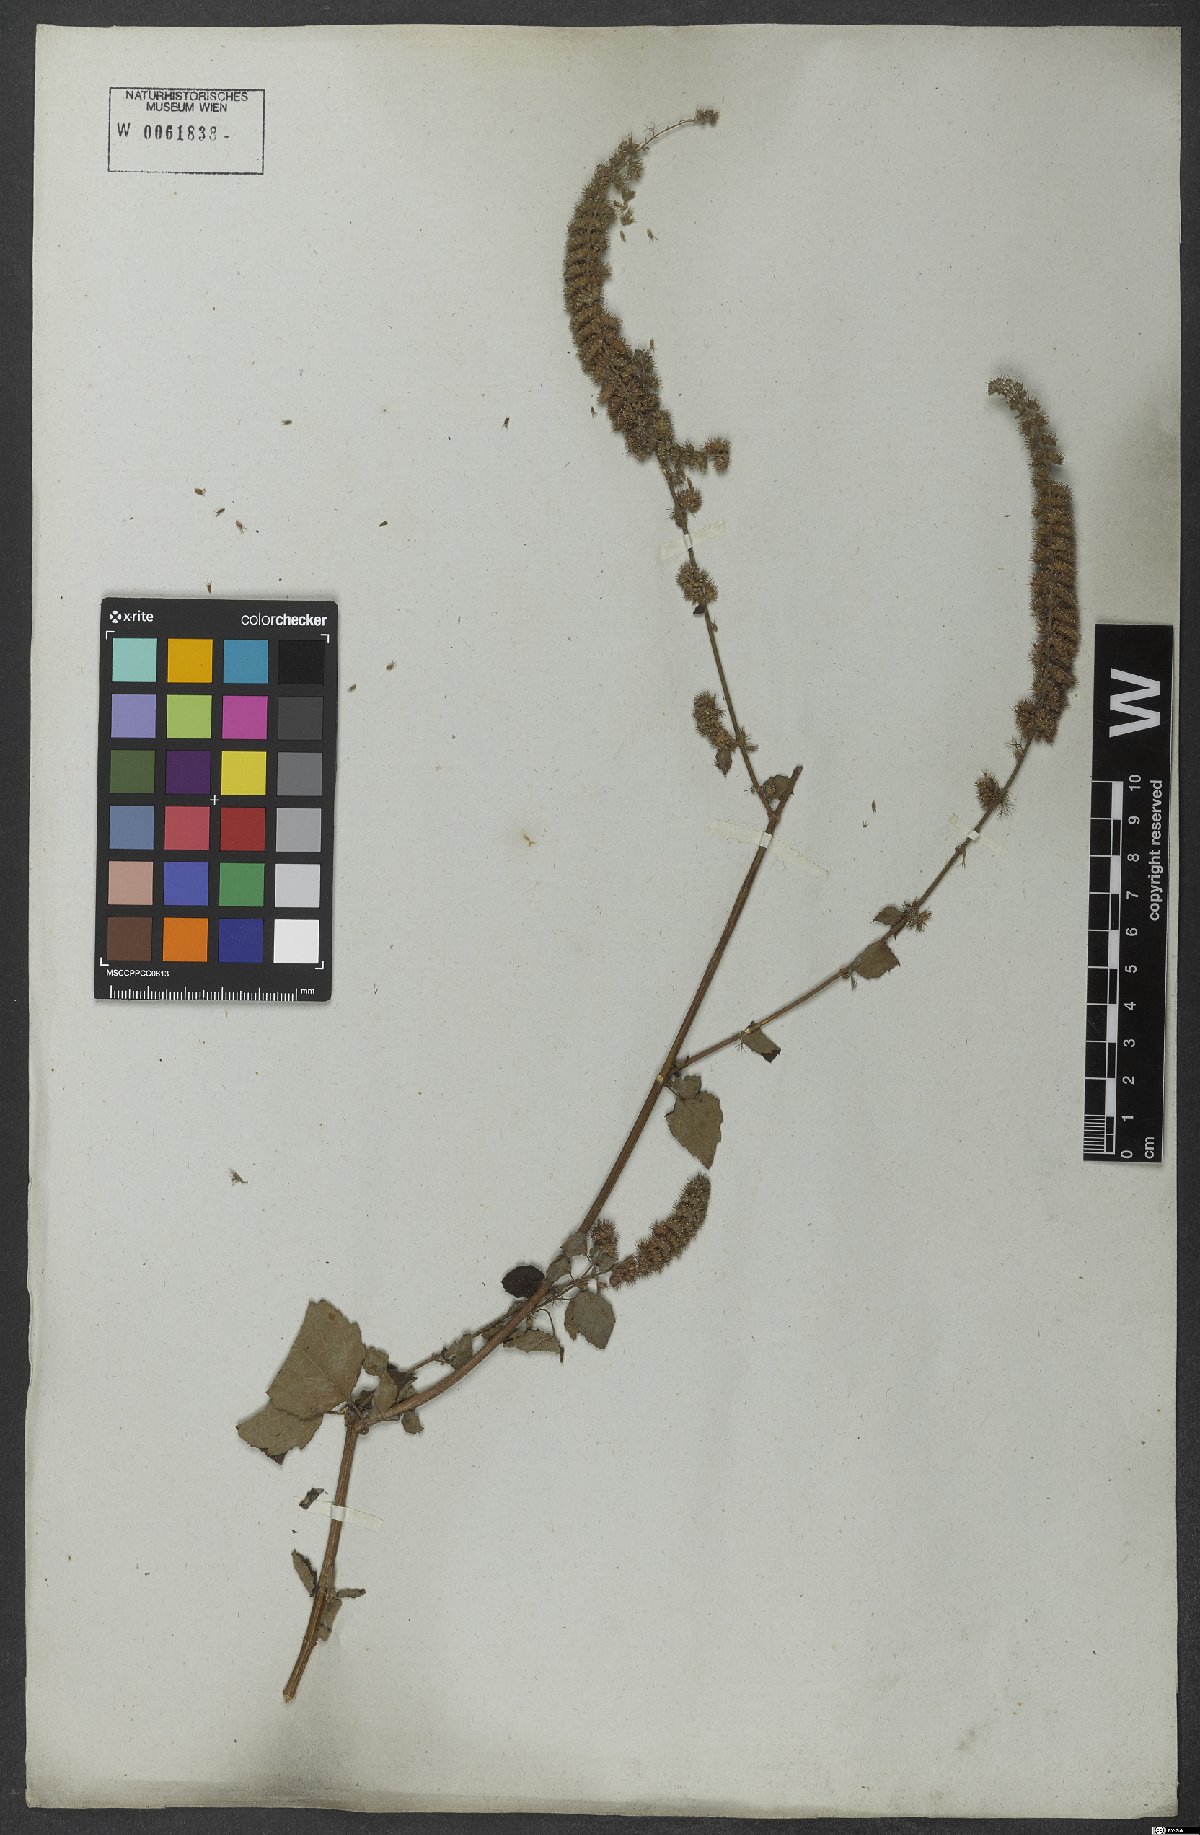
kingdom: Plantae
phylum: Tracheophyta
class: Magnoliopsida
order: Lamiales
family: Lamiaceae
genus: Mesosphaerum
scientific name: Mesosphaerum pectinatum
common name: Comb hyptis
